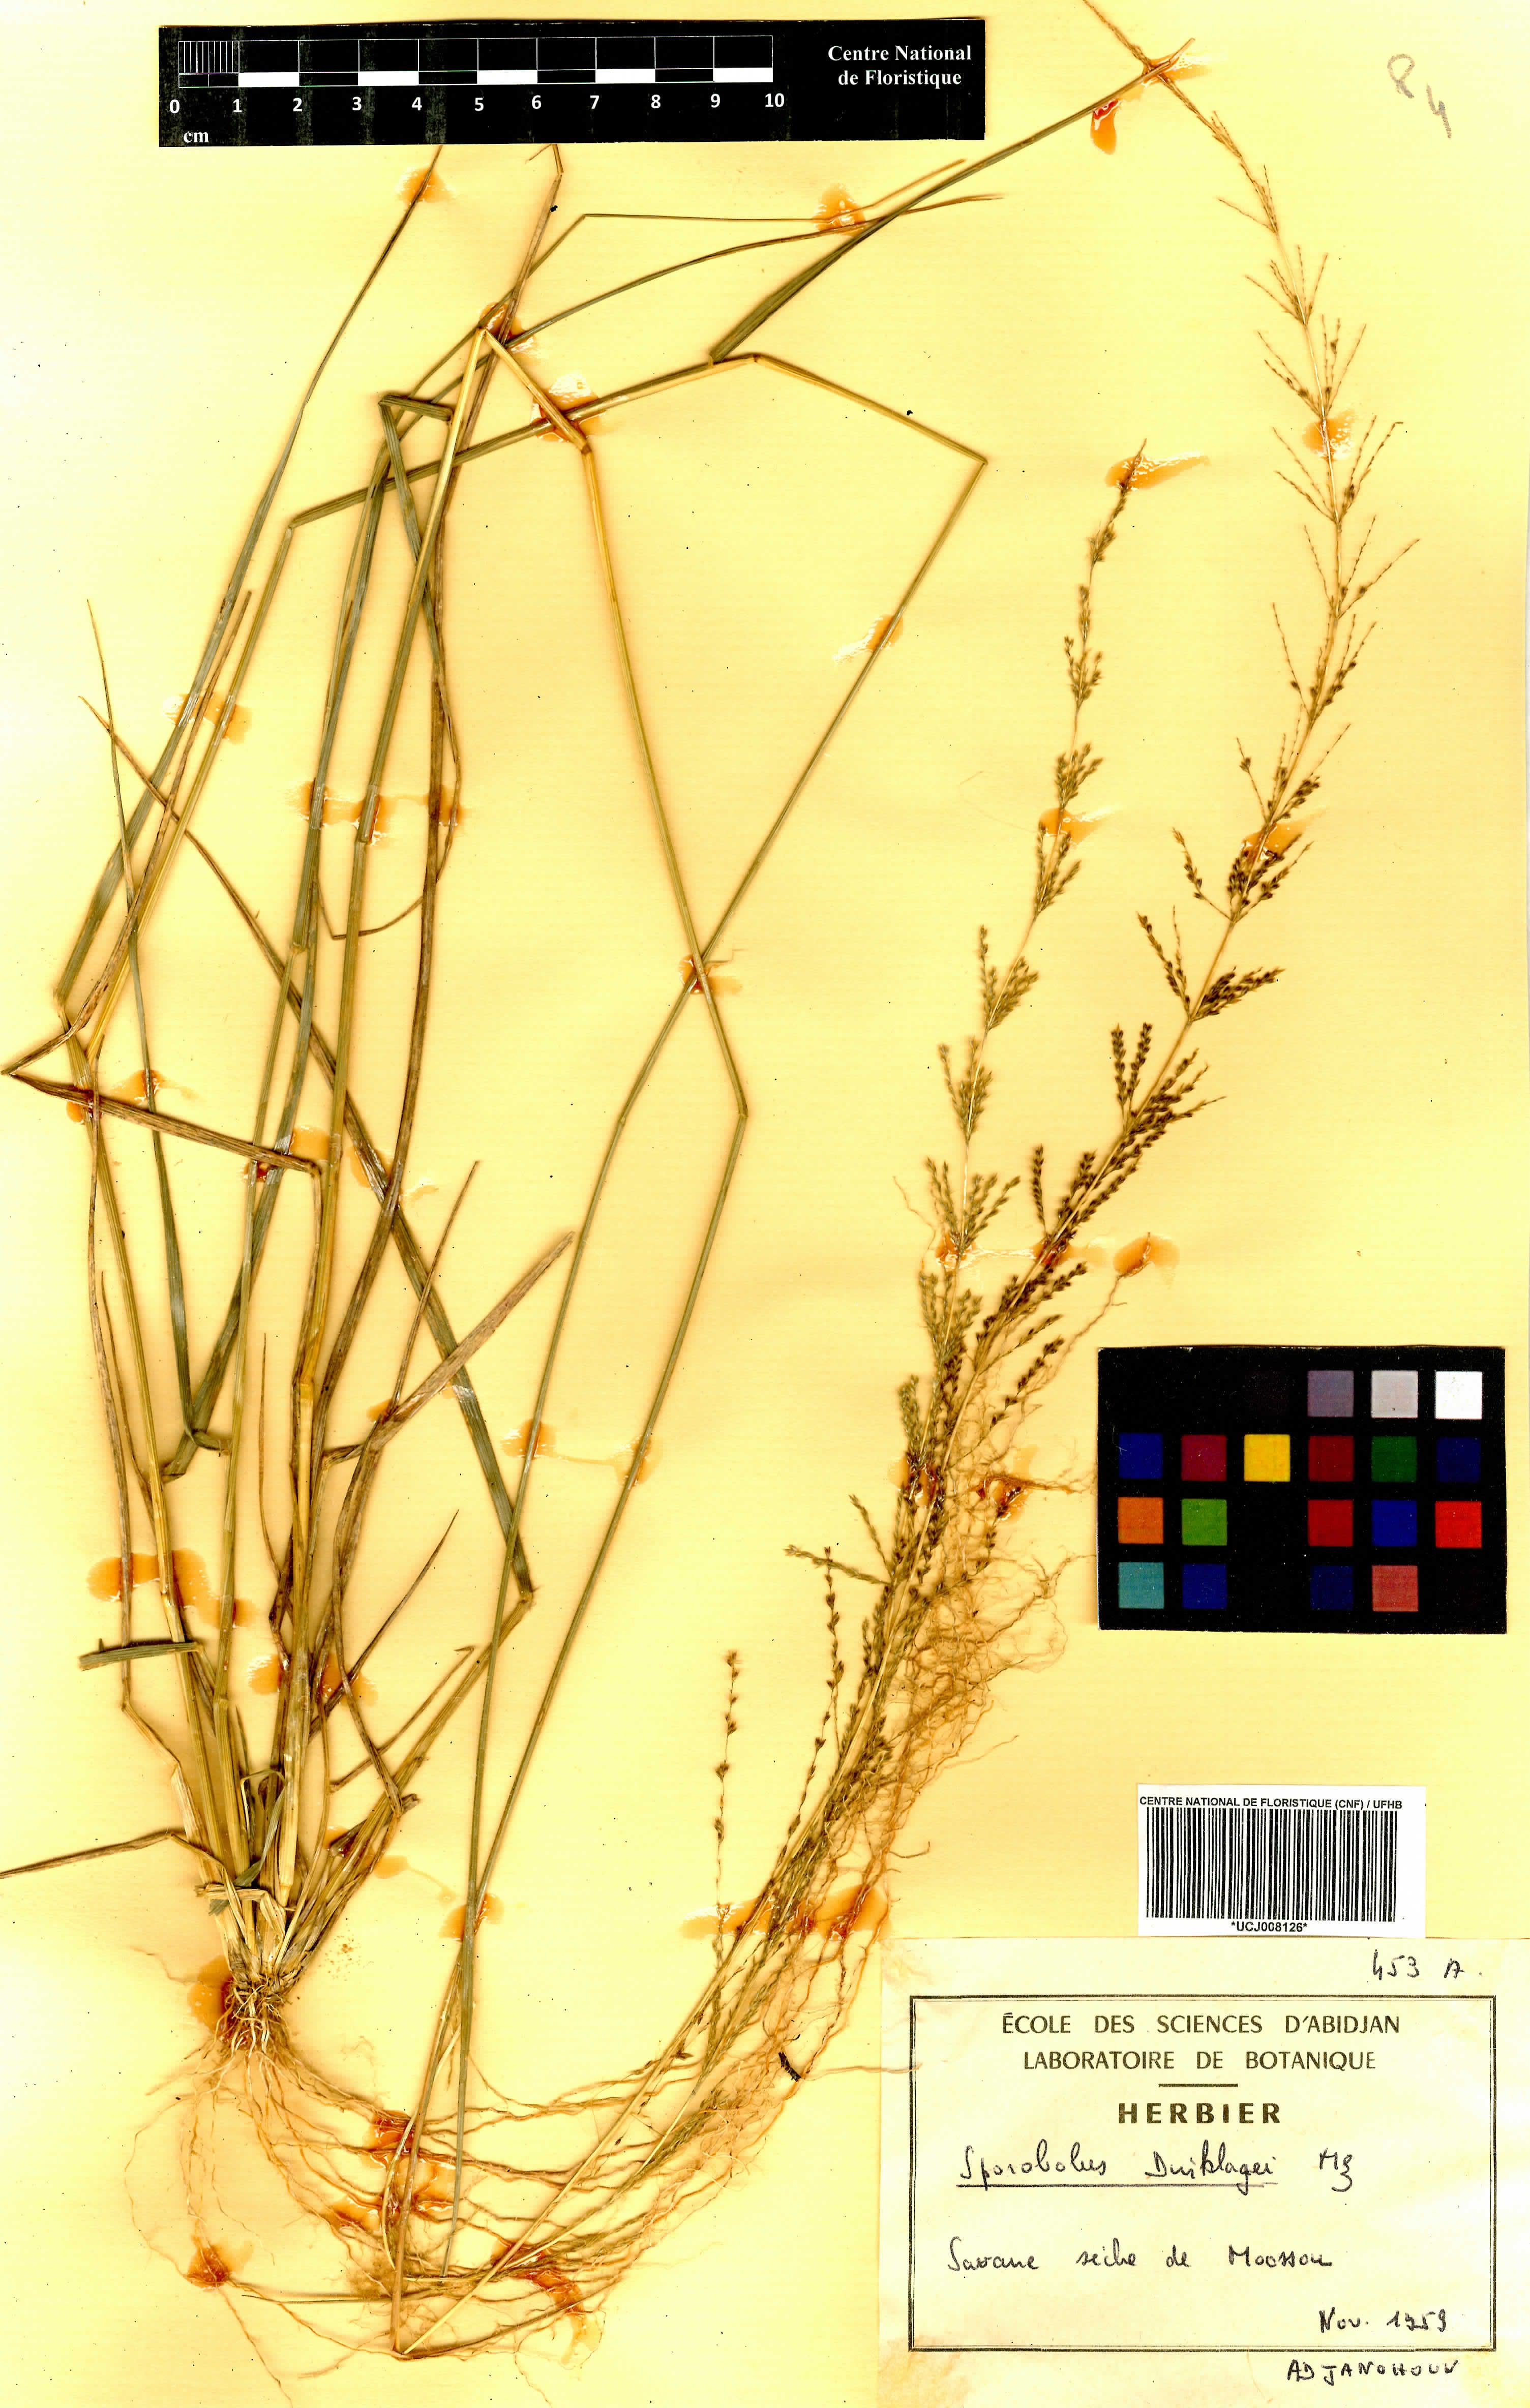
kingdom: Plantae
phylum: Tracheophyta
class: Liliopsida
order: Poales
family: Poaceae
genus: Sporobolus
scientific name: Sporobolus dinklagei
